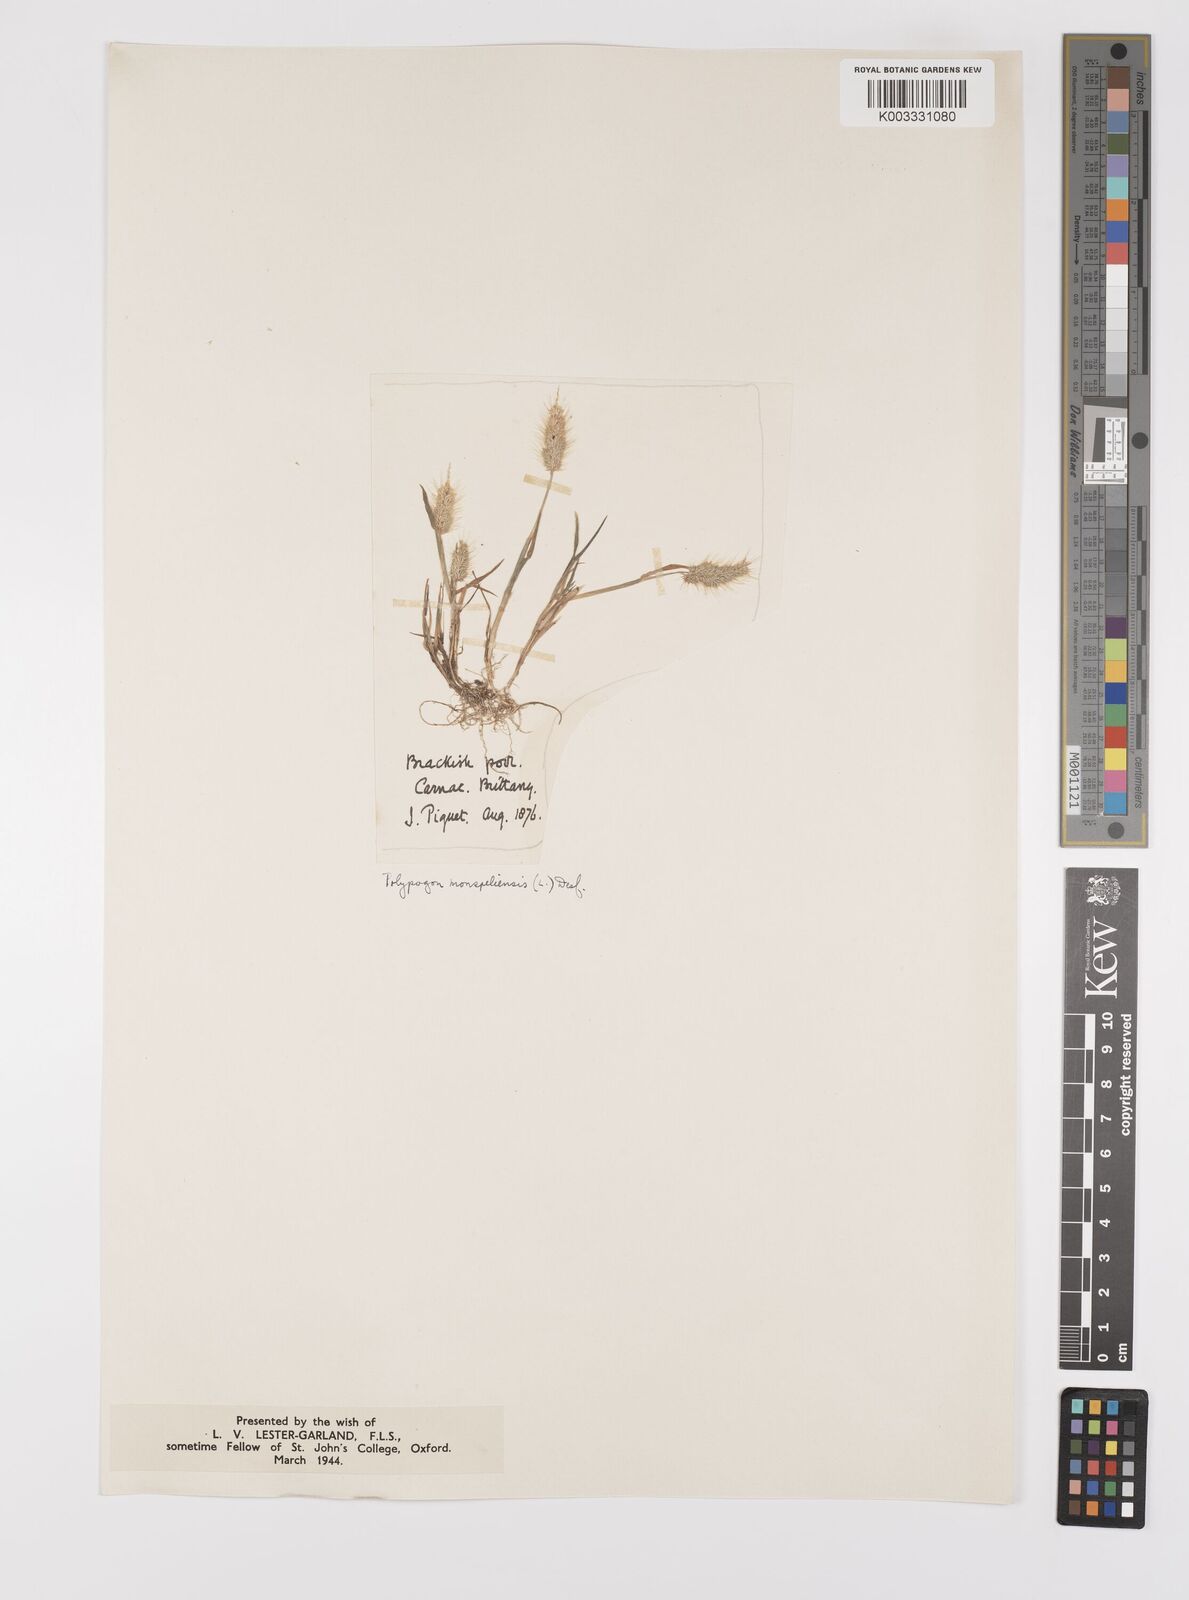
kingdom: Plantae
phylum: Tracheophyta
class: Liliopsida
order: Poales
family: Poaceae
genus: Polypogon
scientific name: Polypogon monspeliensis
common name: Annual rabbitsfoot grass
